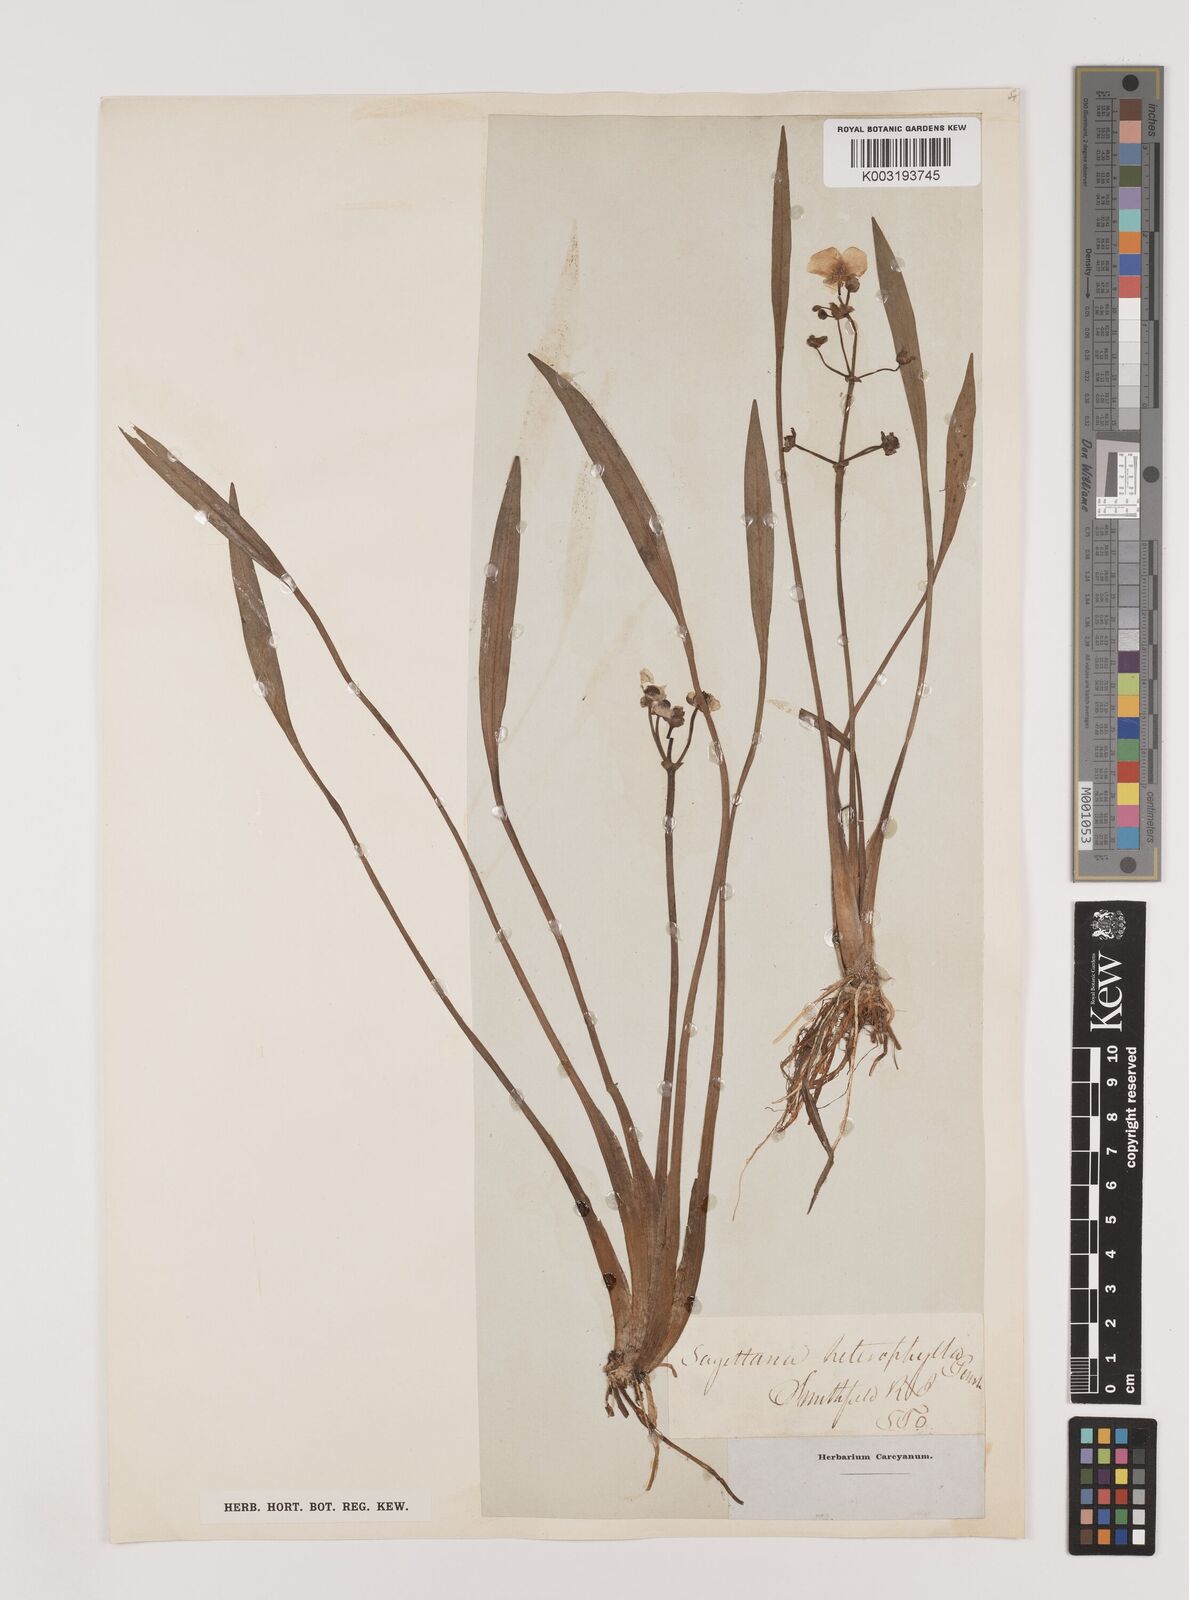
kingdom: Plantae
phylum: Tracheophyta
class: Liliopsida
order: Alismatales
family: Alismataceae
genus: Sagittaria
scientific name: Sagittaria rigida
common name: Canadian arrowhead
